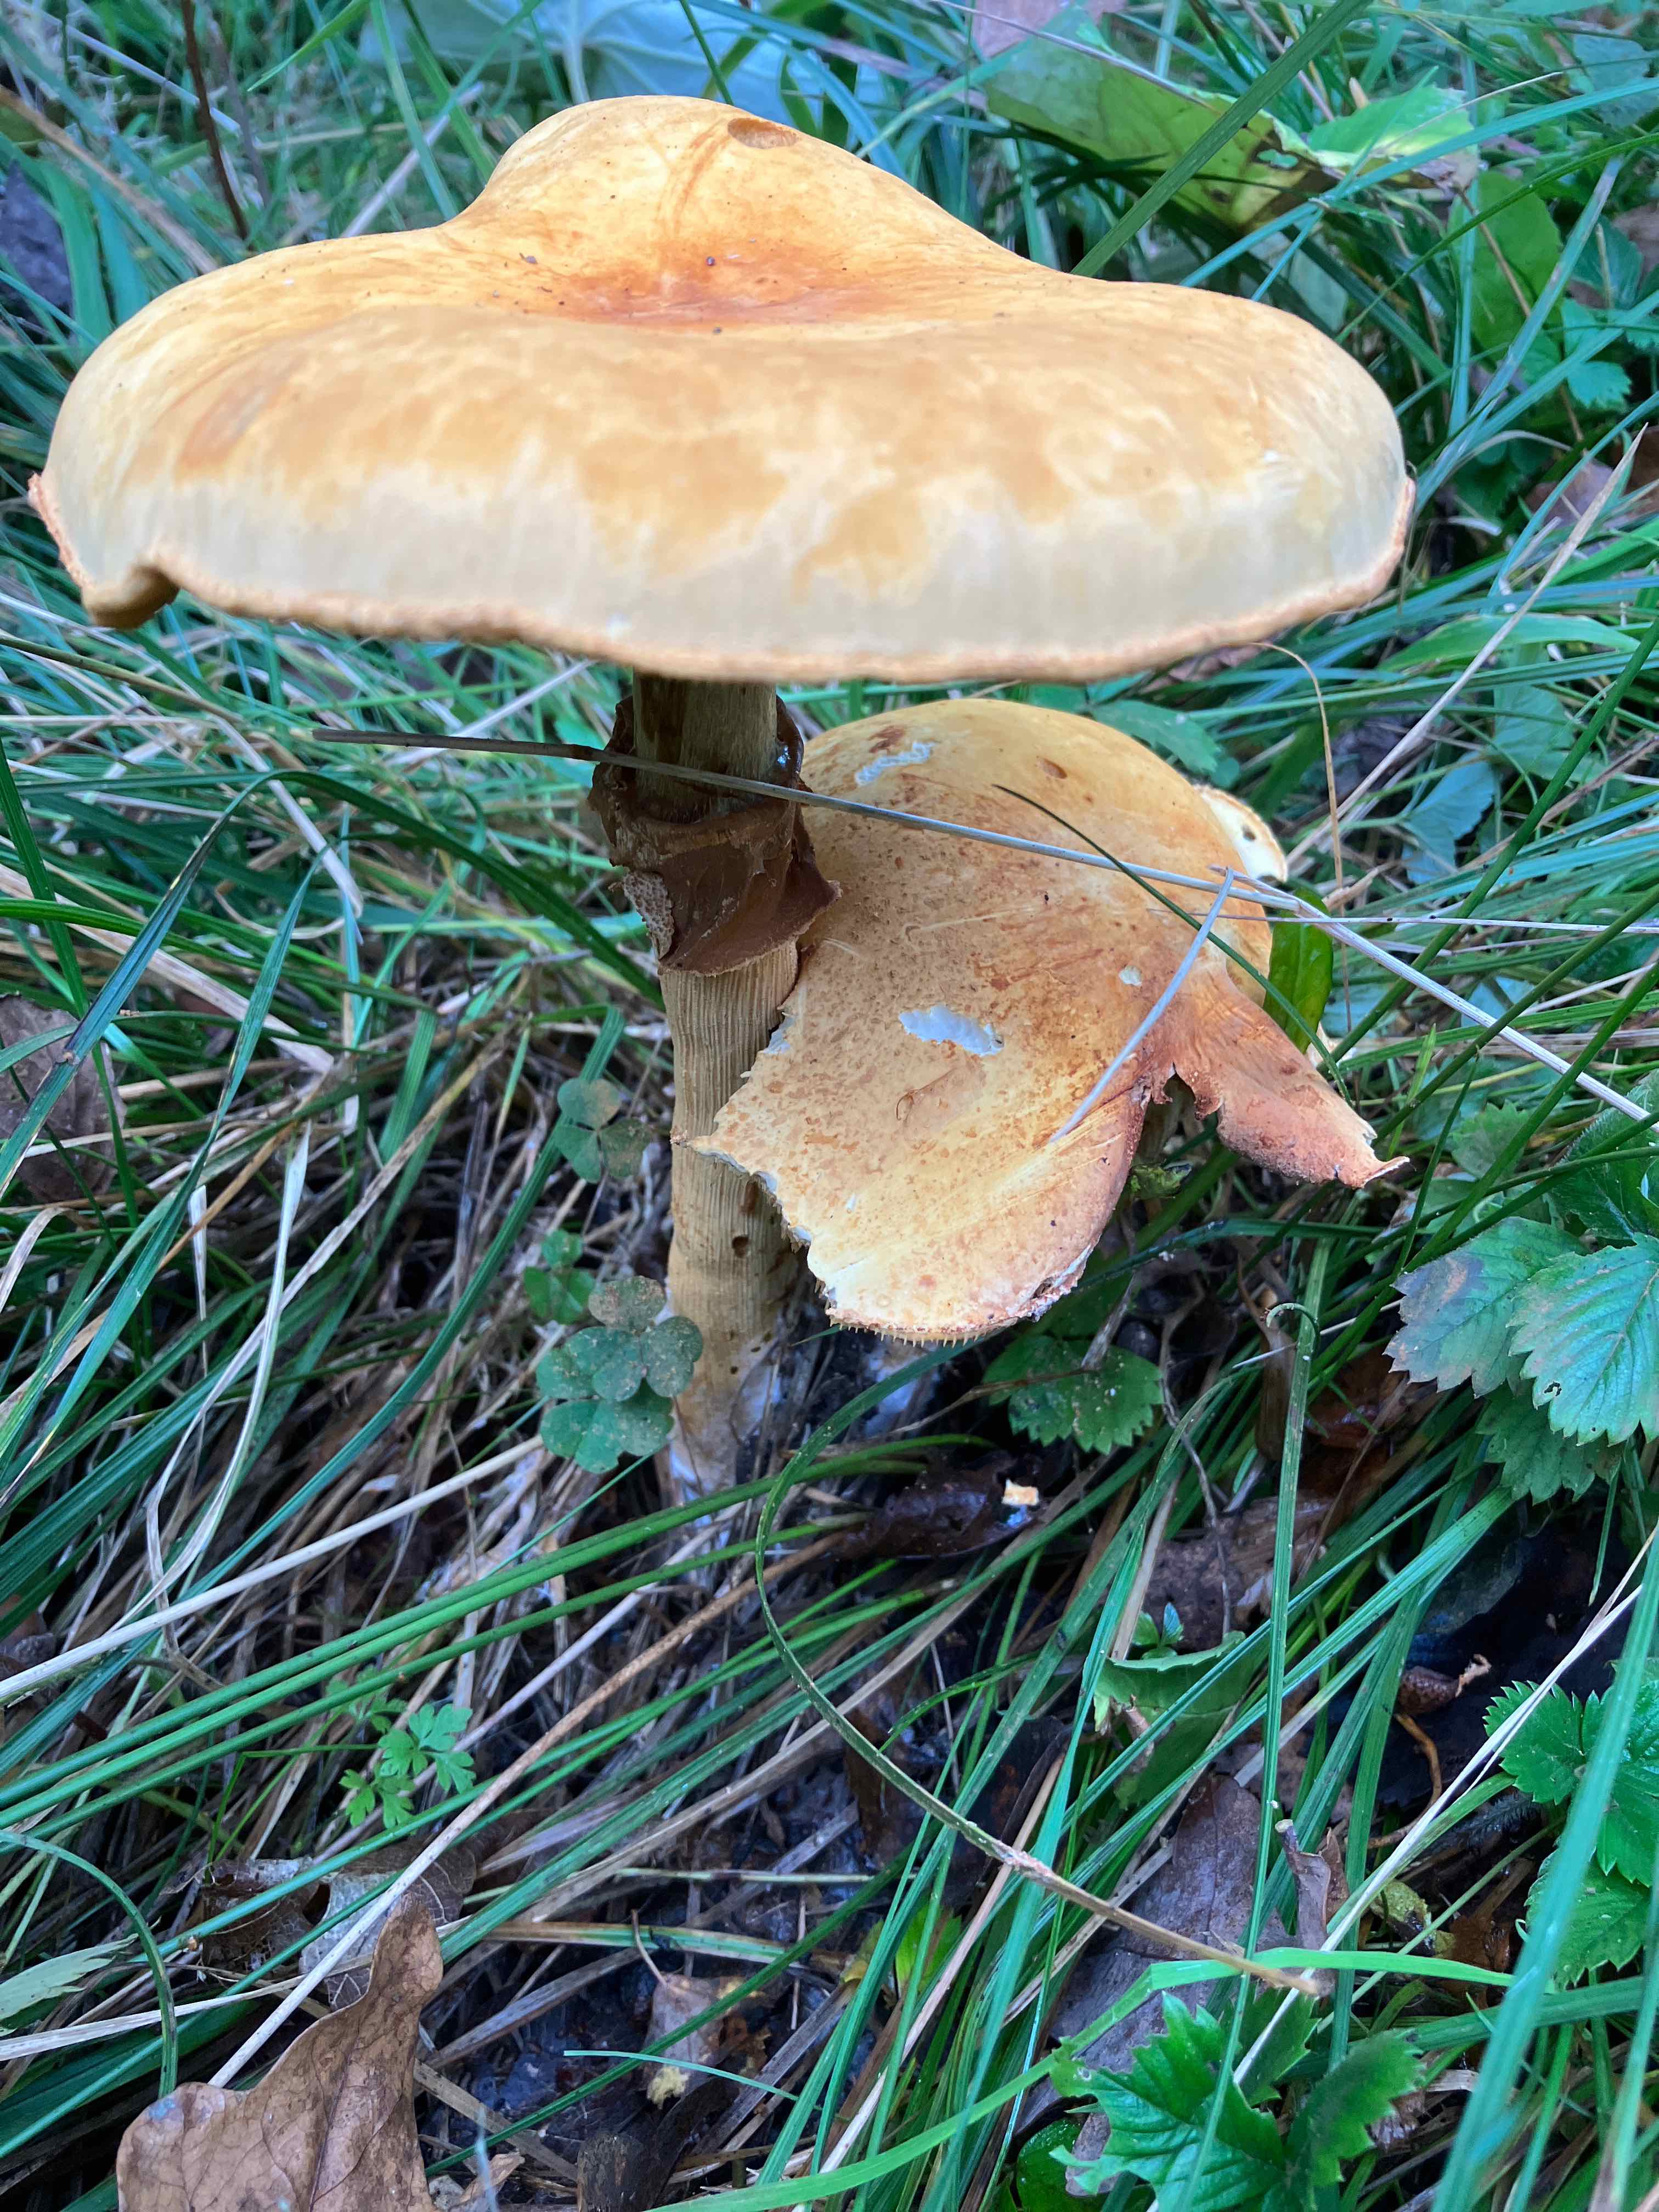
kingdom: Fungi
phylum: Basidiomycota
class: Agaricomycetes
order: Agaricales
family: Tricholomataceae
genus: Phaeolepiota
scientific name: Phaeolepiota aurea
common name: gyldenhat
